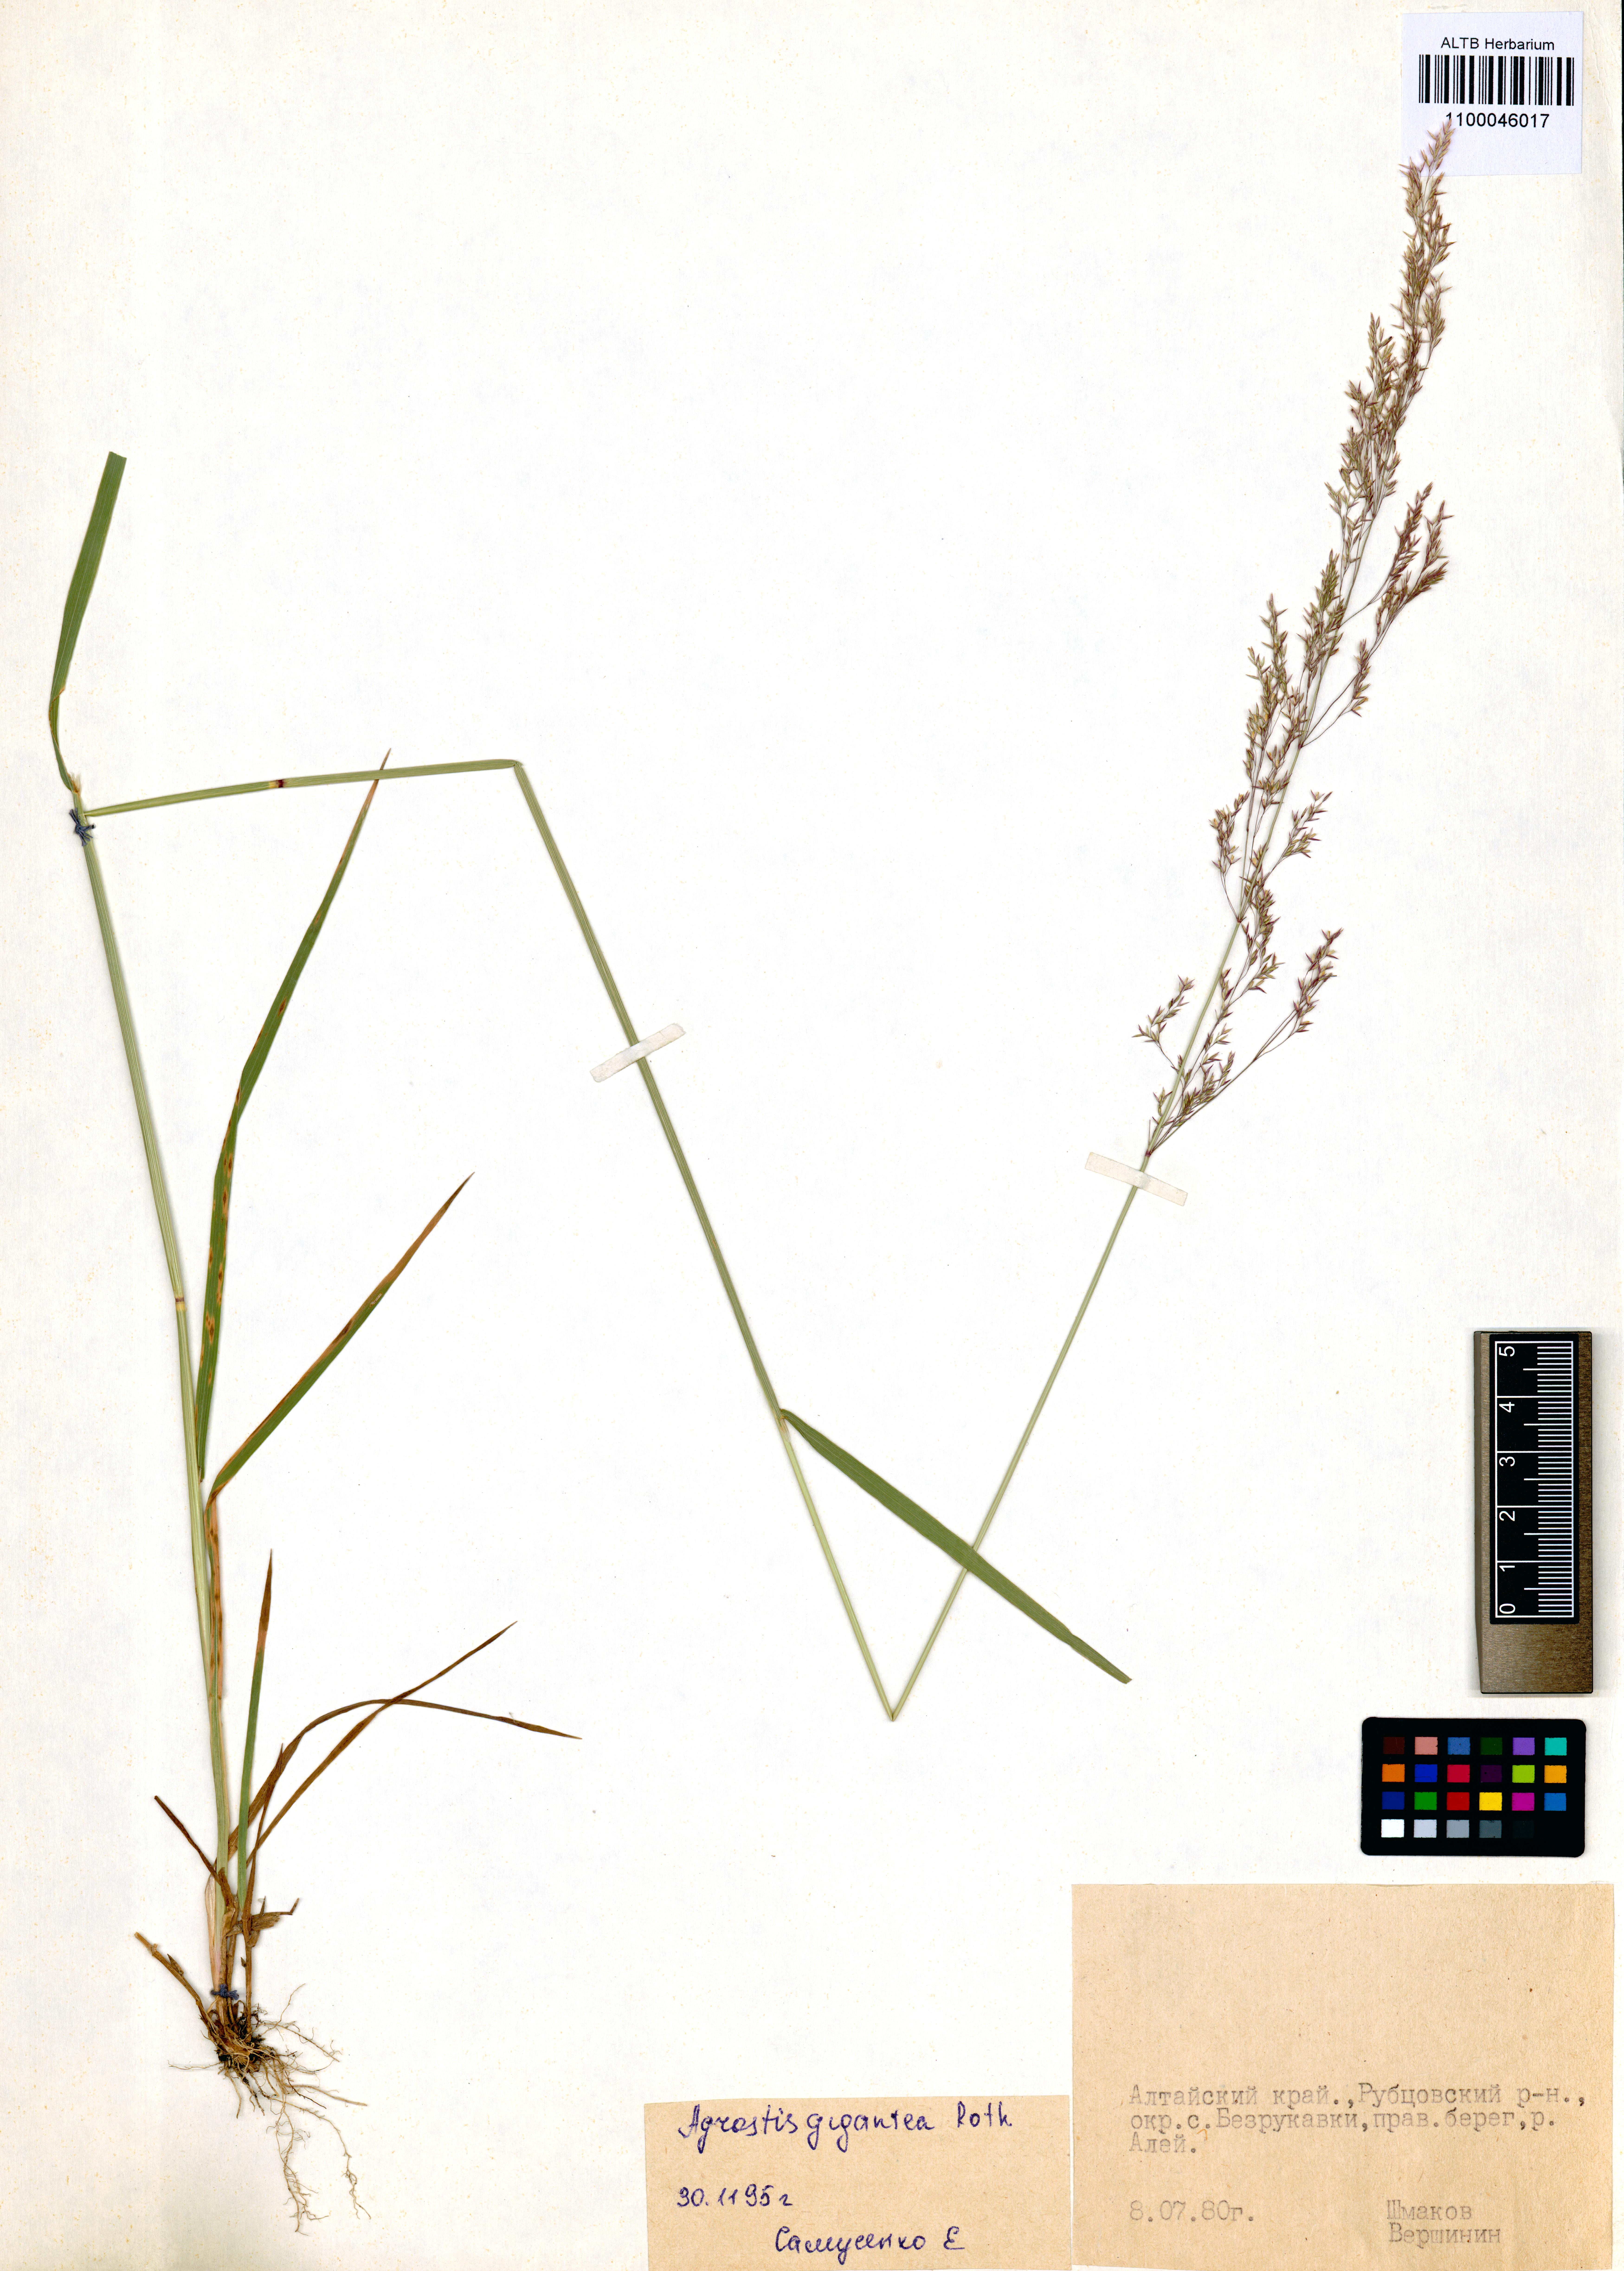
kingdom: Plantae
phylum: Tracheophyta
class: Liliopsida
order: Poales
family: Poaceae
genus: Agrostis
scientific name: Agrostis gigantea
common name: Black bent
